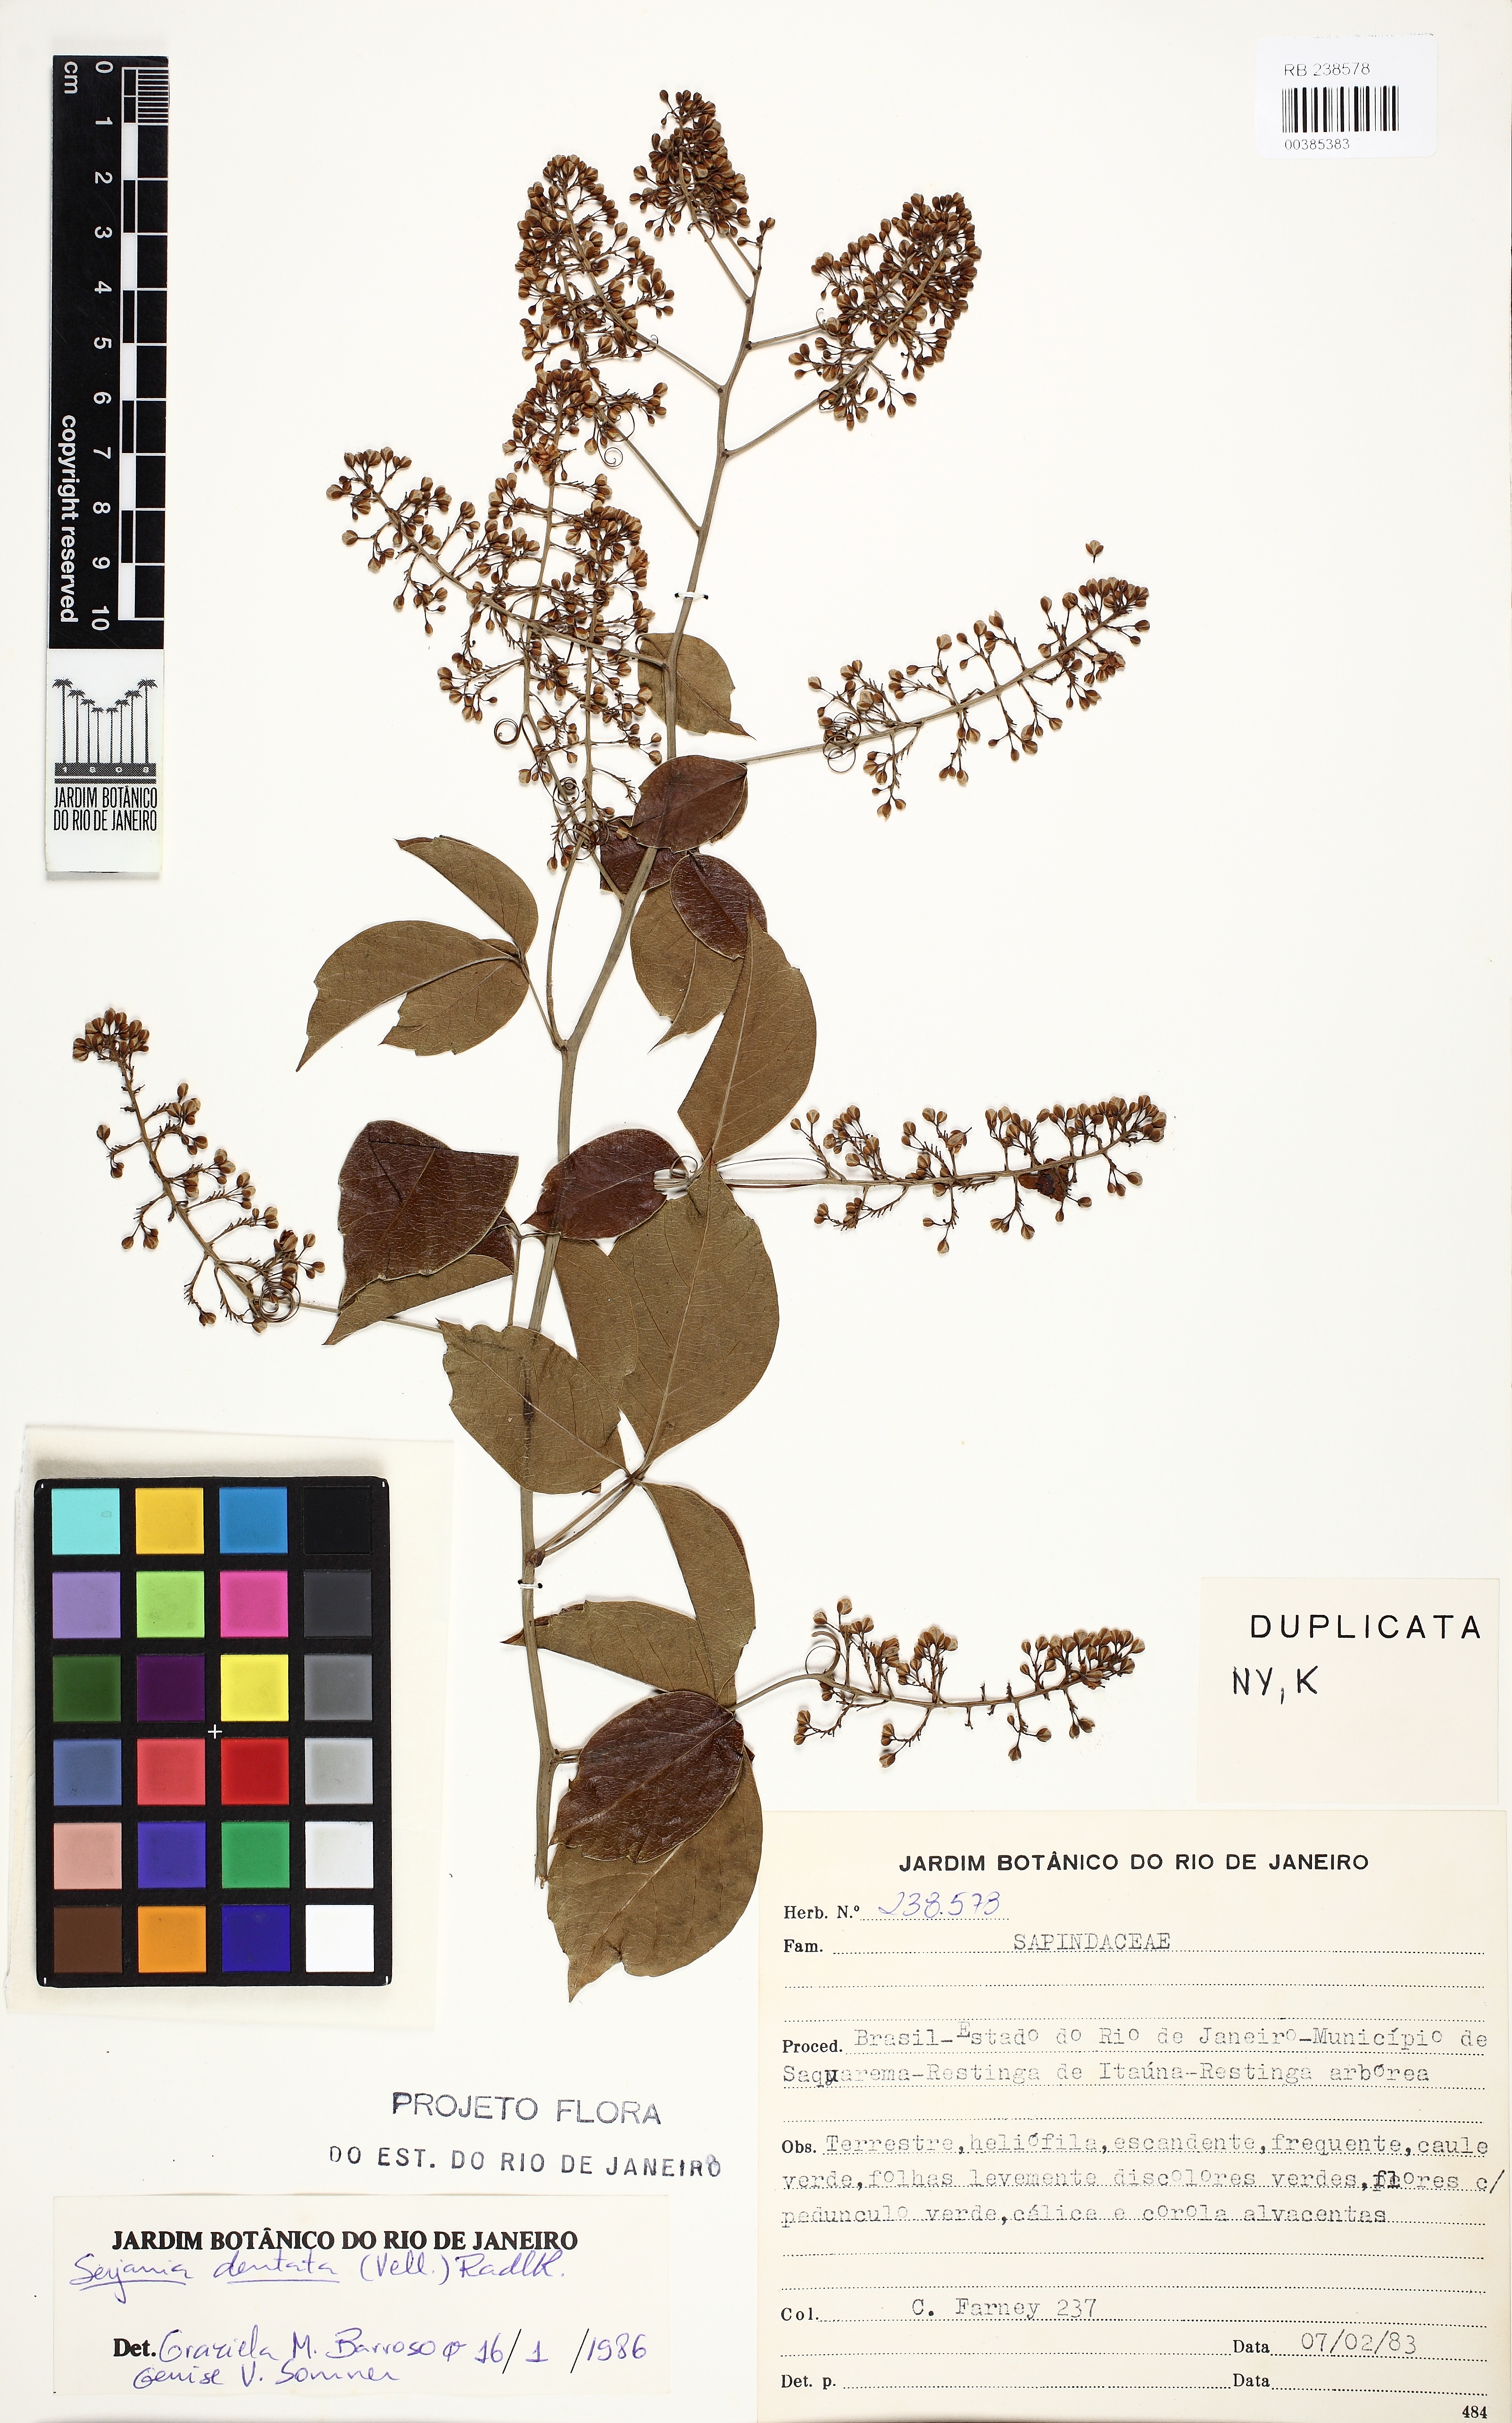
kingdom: Plantae
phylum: Tracheophyta
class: Magnoliopsida
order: Sapindales
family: Sapindaceae
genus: Serjania
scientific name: Serjania dentata
